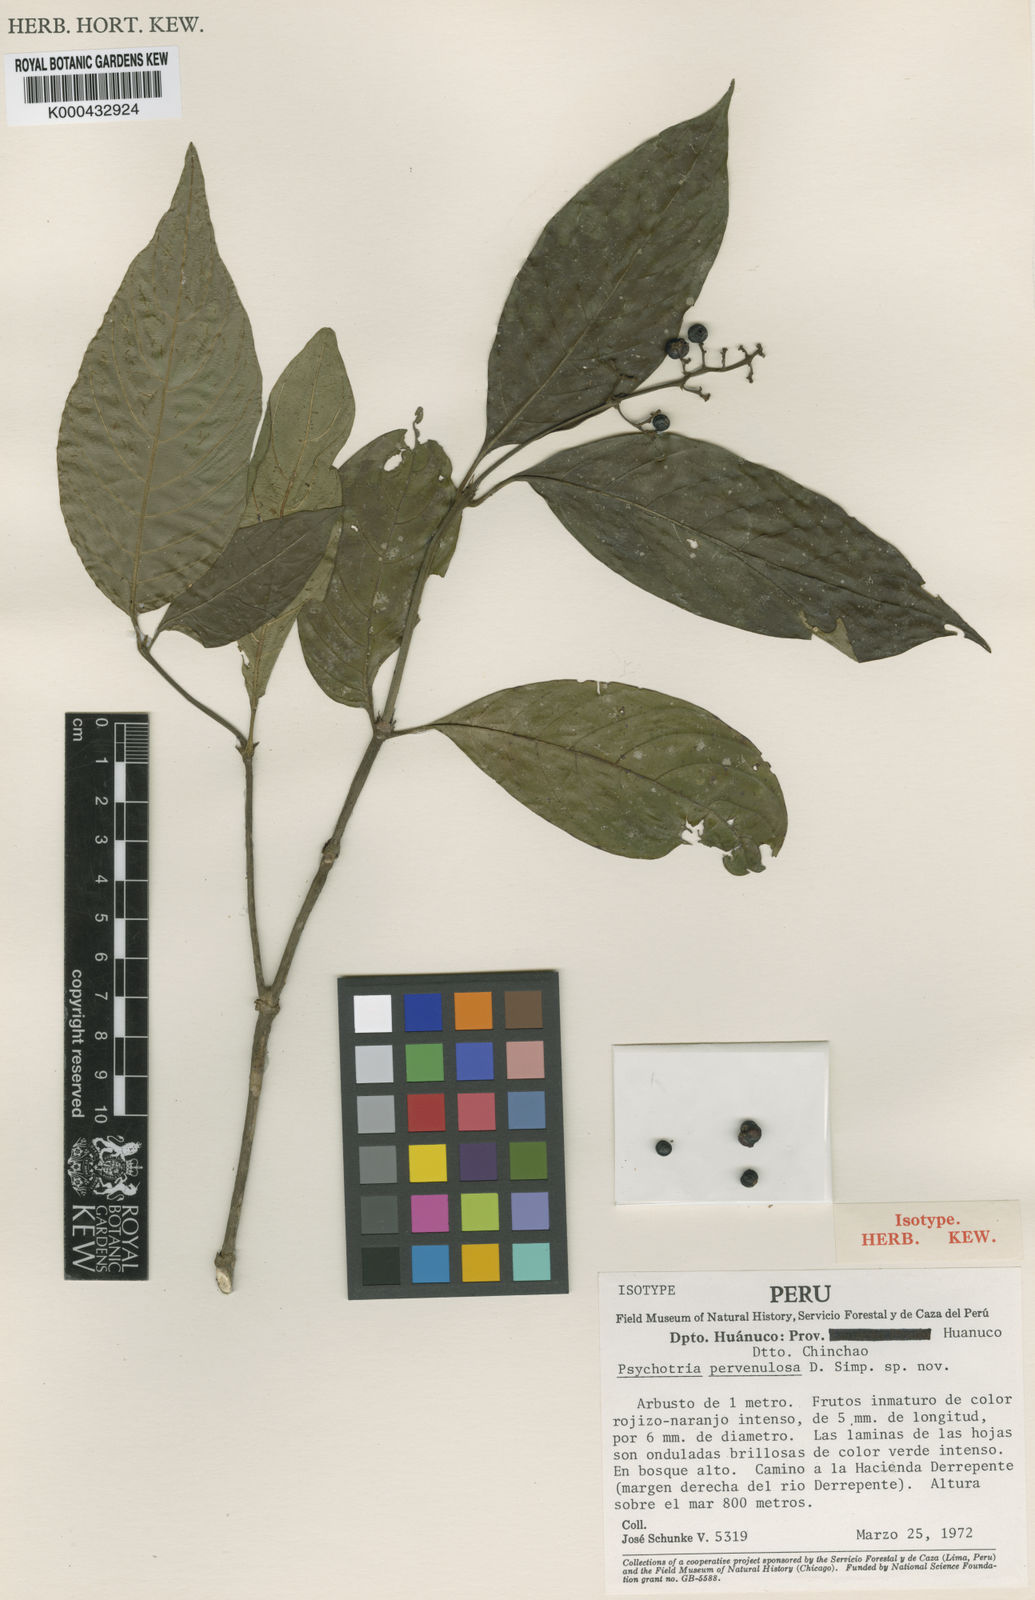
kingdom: Plantae
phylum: Tracheophyta
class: Magnoliopsida
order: Gentianales
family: Rubiaceae
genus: Psychotria
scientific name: Psychotria
